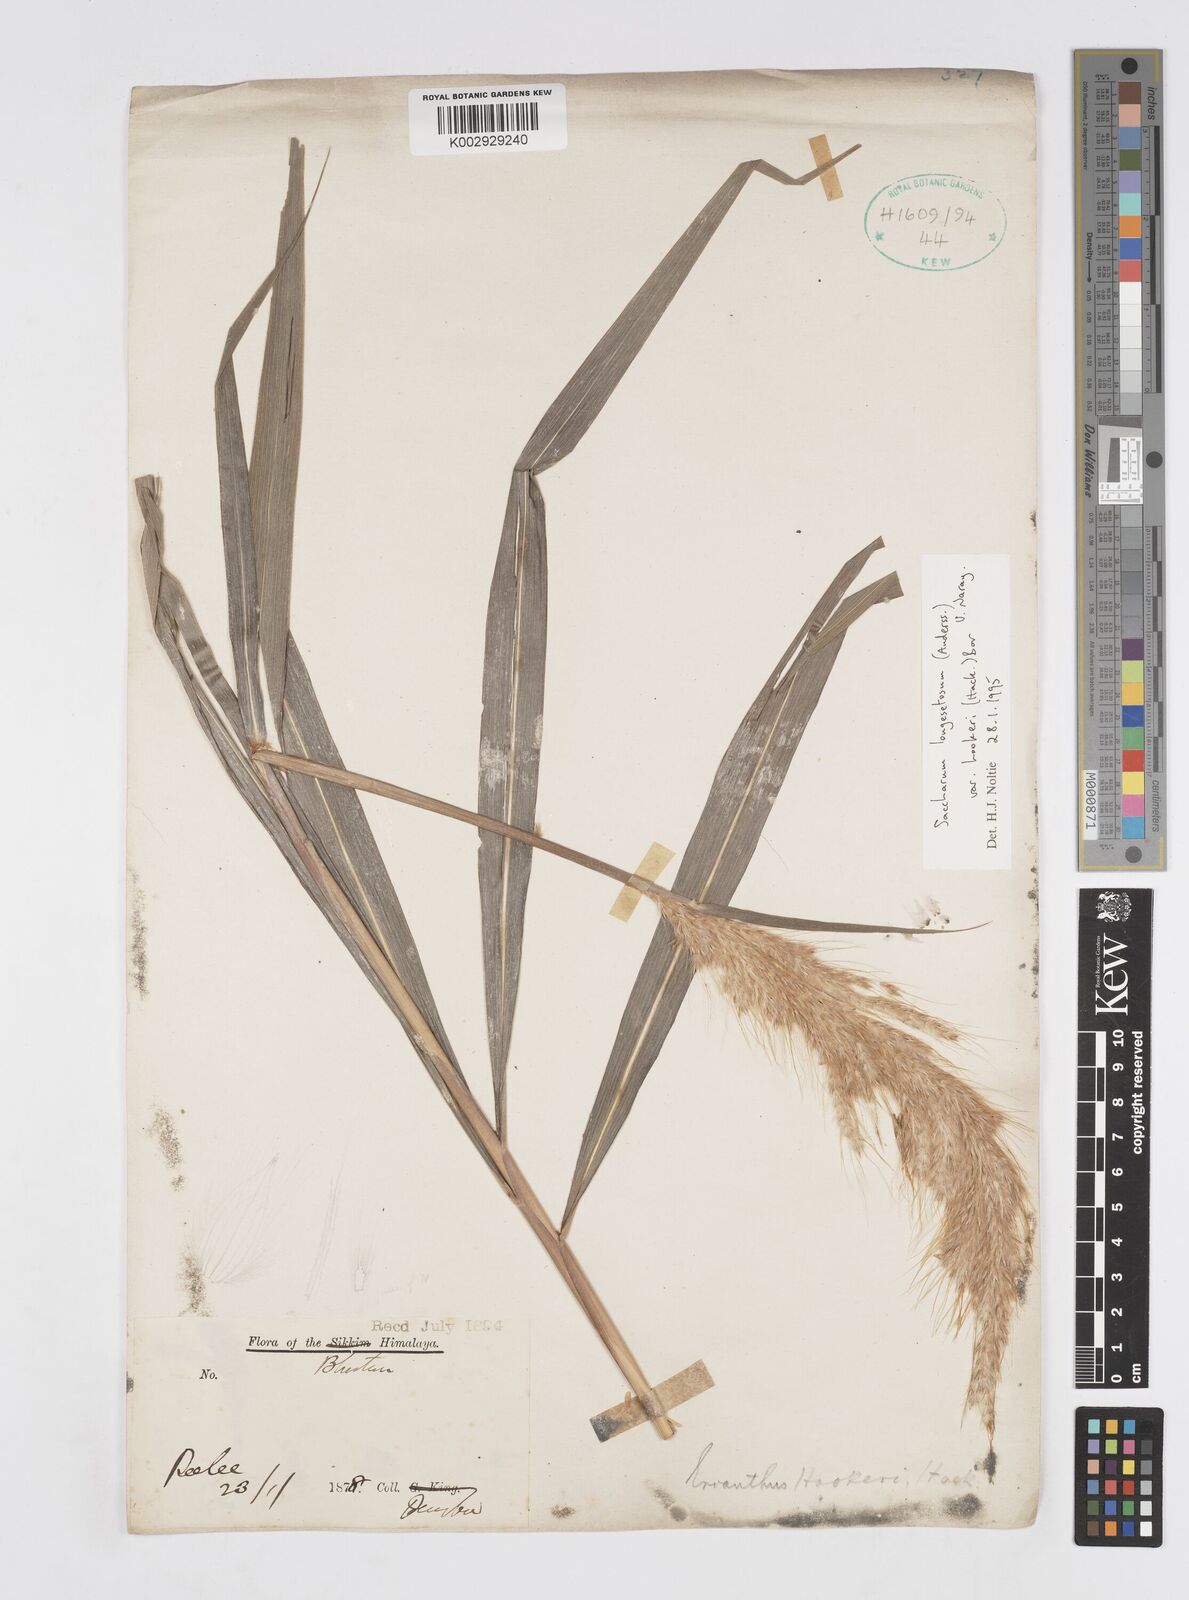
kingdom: Plantae
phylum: Tracheophyta
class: Liliopsida
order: Poales
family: Poaceae
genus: Saccharum
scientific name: Saccharum longesetosum
